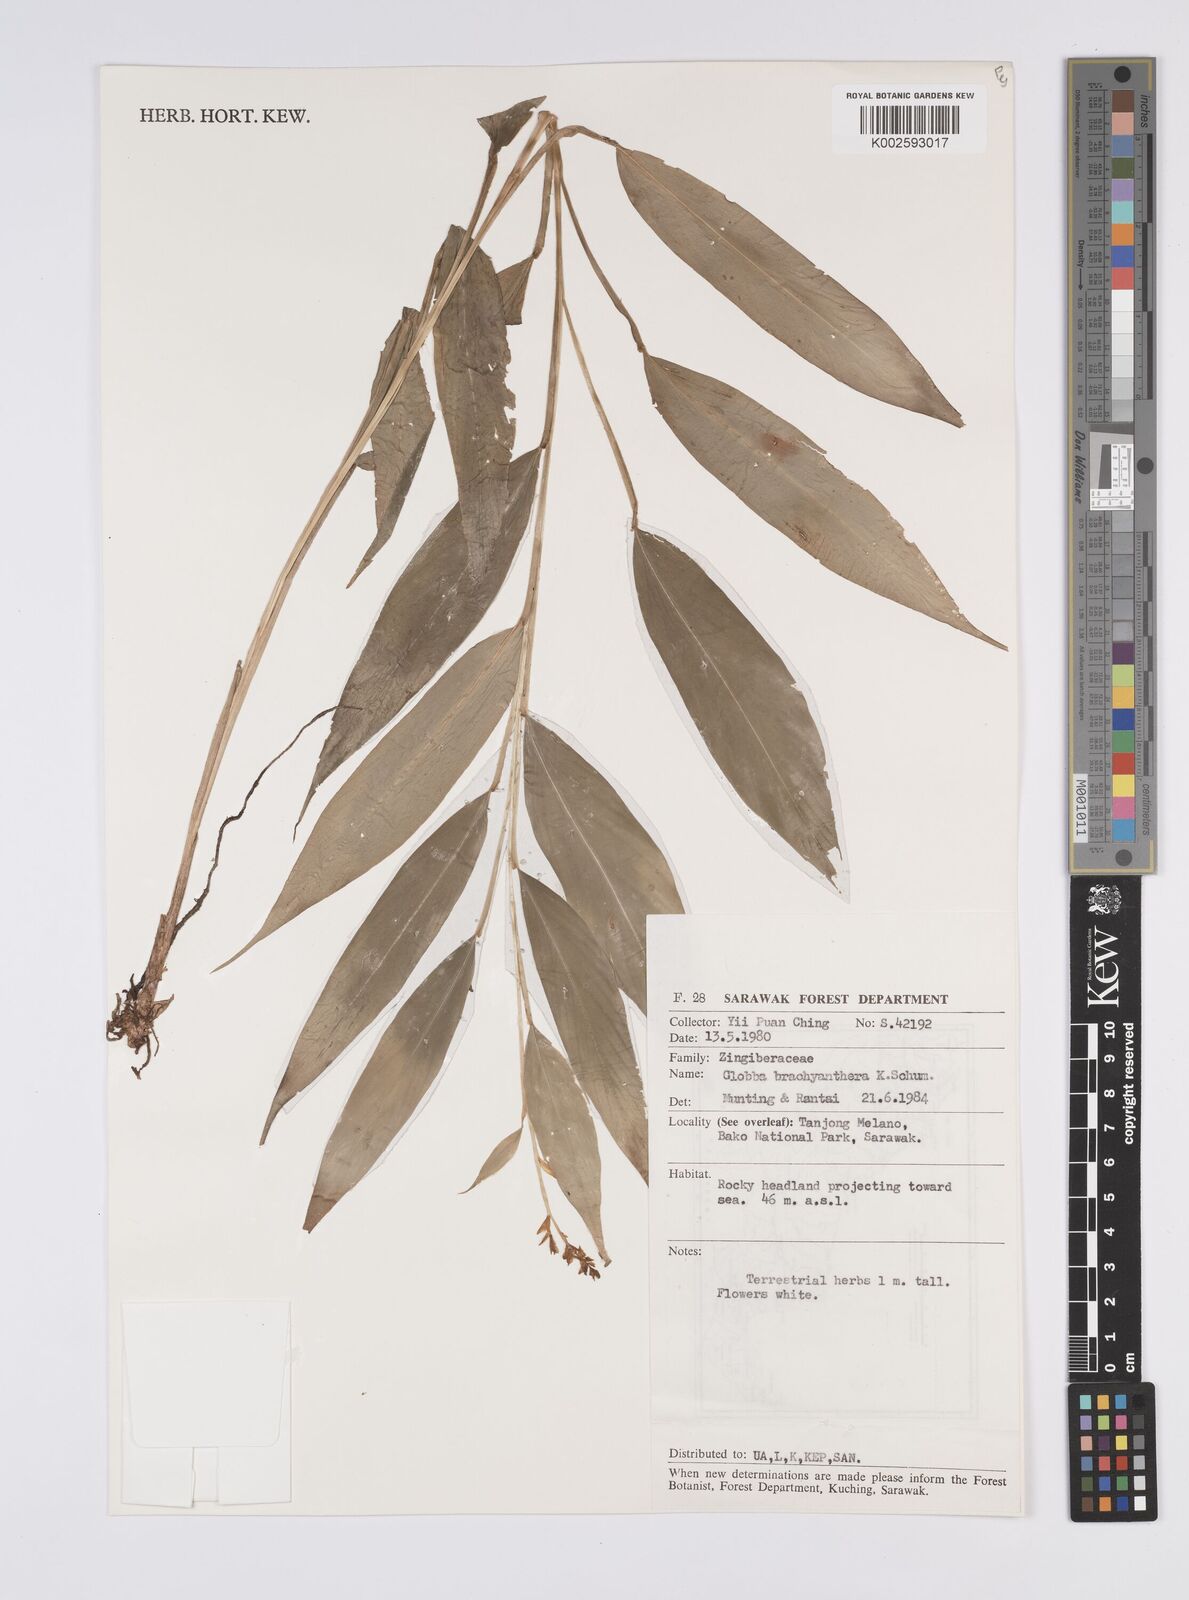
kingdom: Plantae
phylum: Tracheophyta
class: Liliopsida
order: Zingiberales
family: Zingiberaceae
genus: Globba
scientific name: Globba brachyanthera
